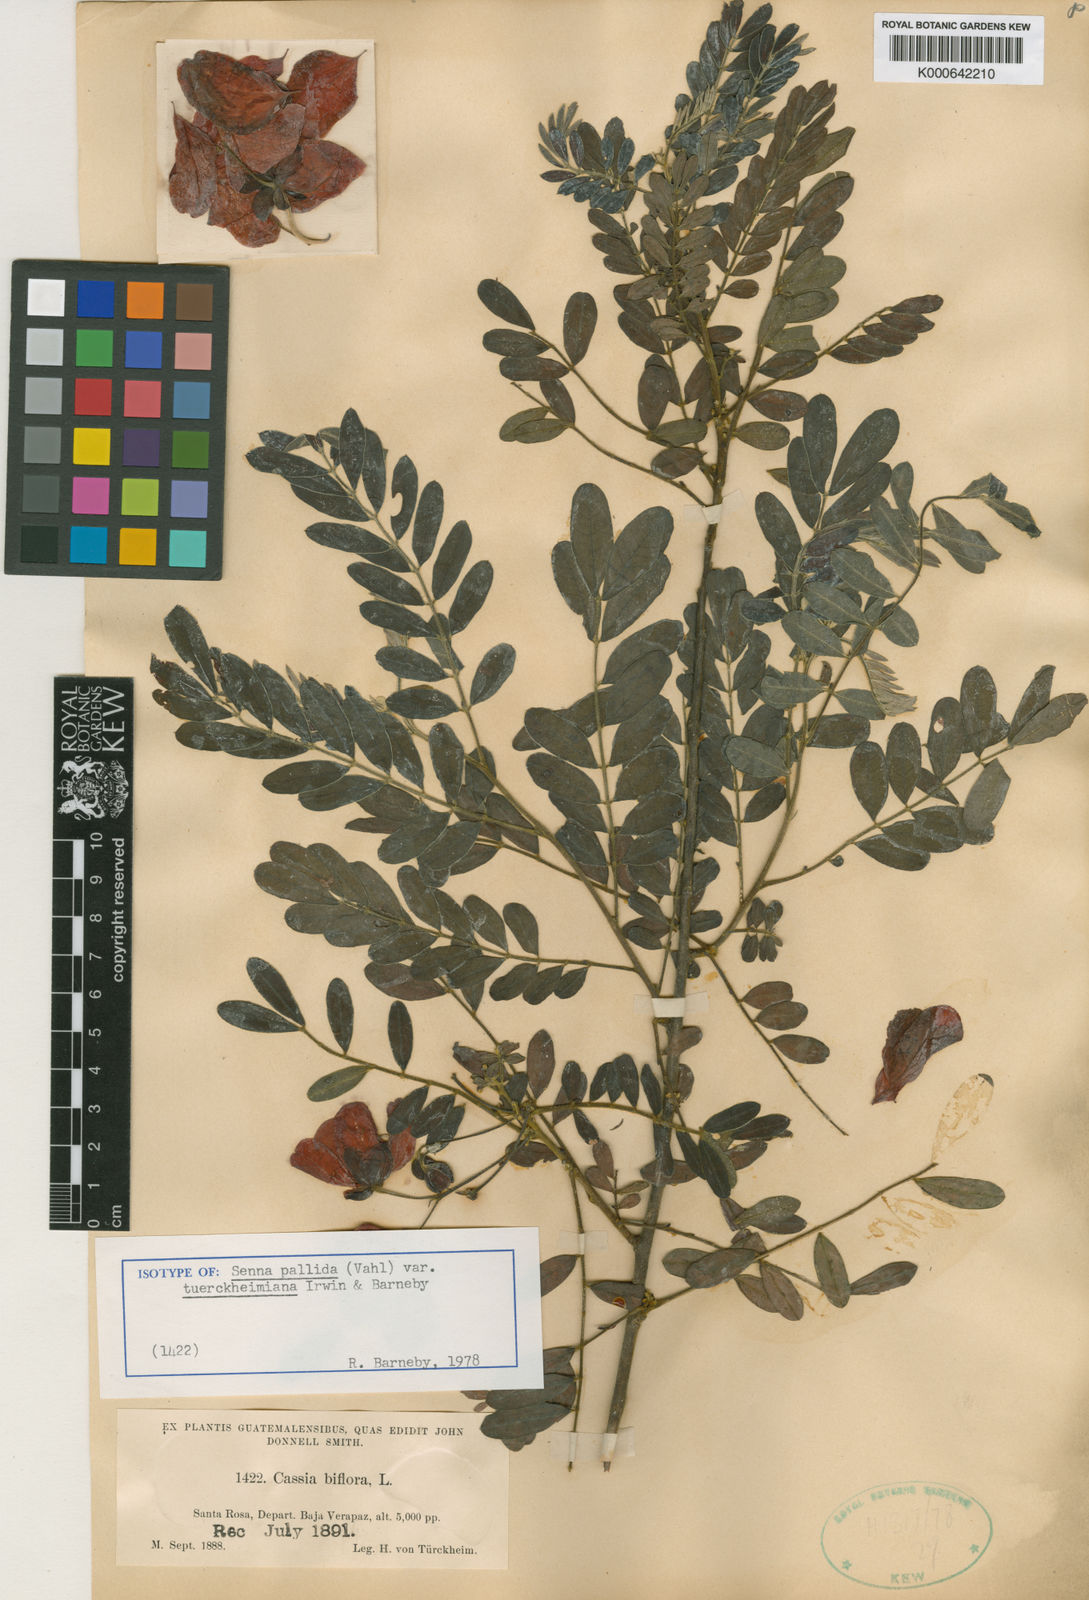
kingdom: Plantae
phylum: Tracheophyta
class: Magnoliopsida
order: Fabales
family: Fabaceae
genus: Senna
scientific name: Senna pallida
